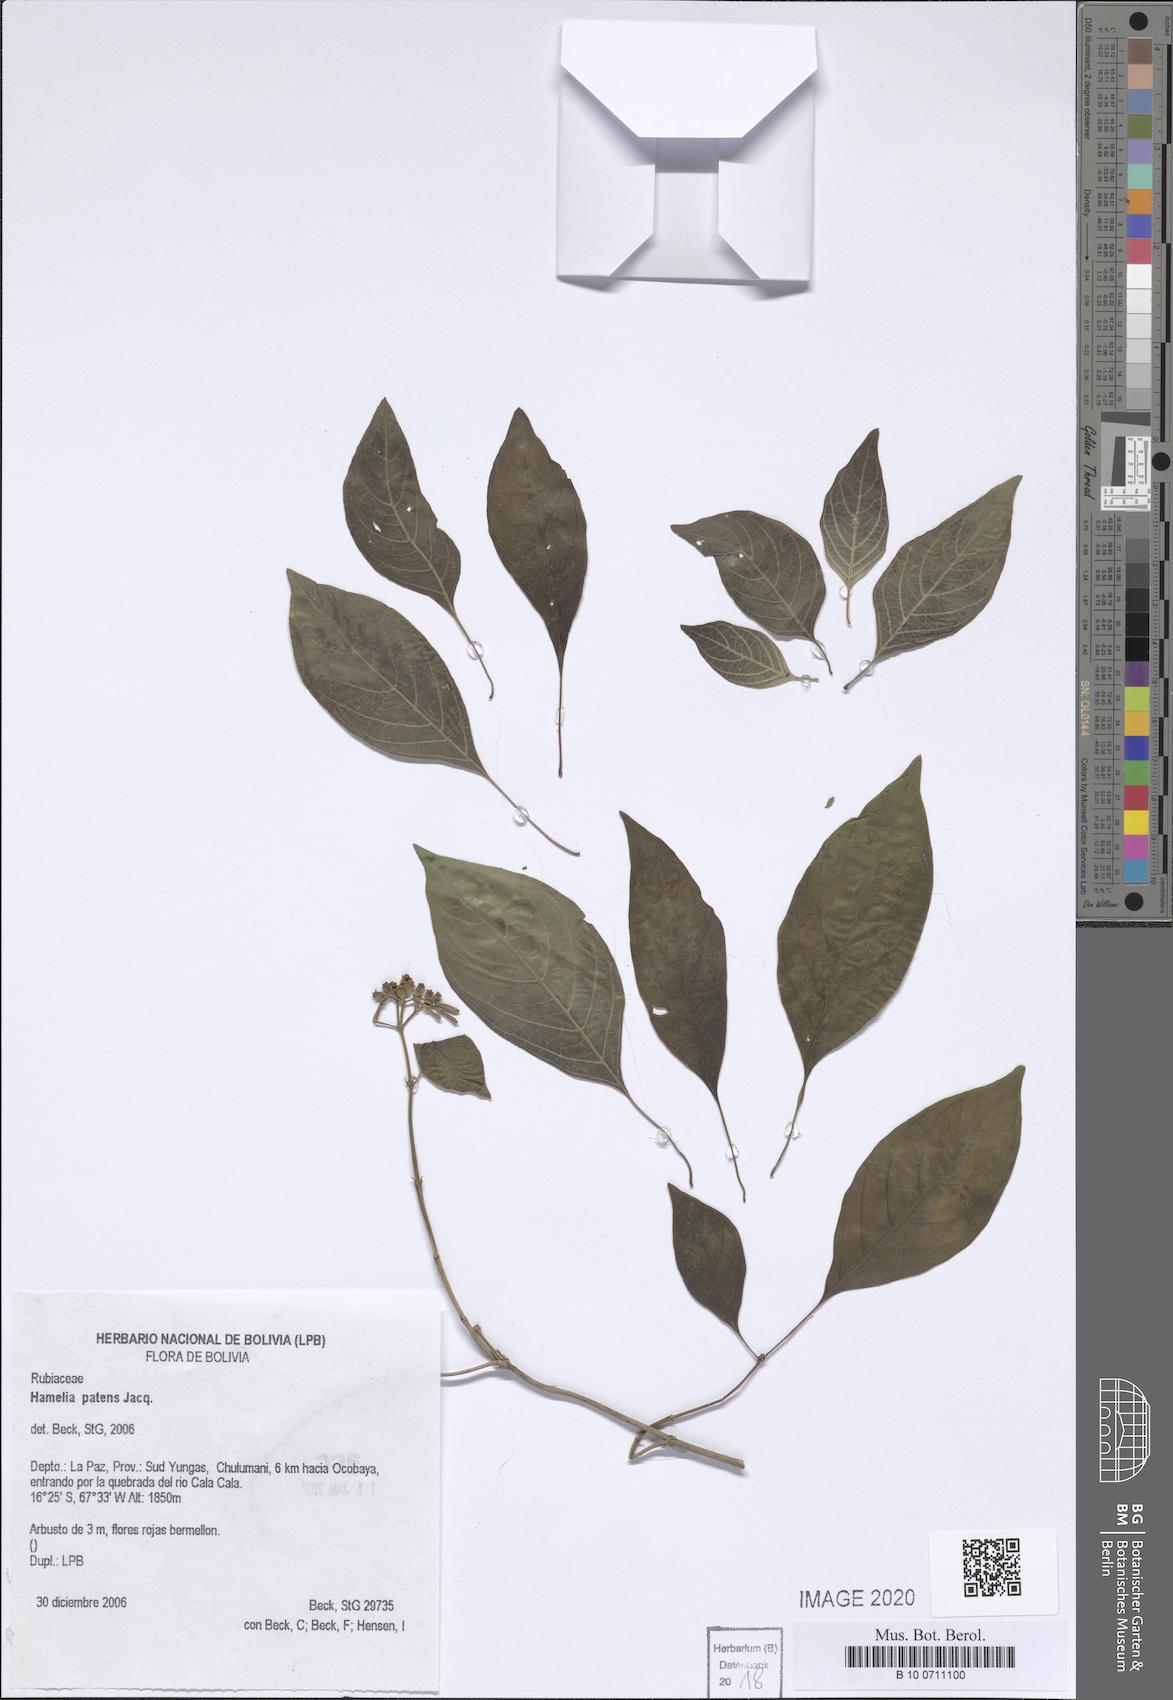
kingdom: Plantae
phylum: Tracheophyta
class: Magnoliopsida
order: Gentianales
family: Rubiaceae
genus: Hamelia
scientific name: Hamelia patens
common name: Redhead
